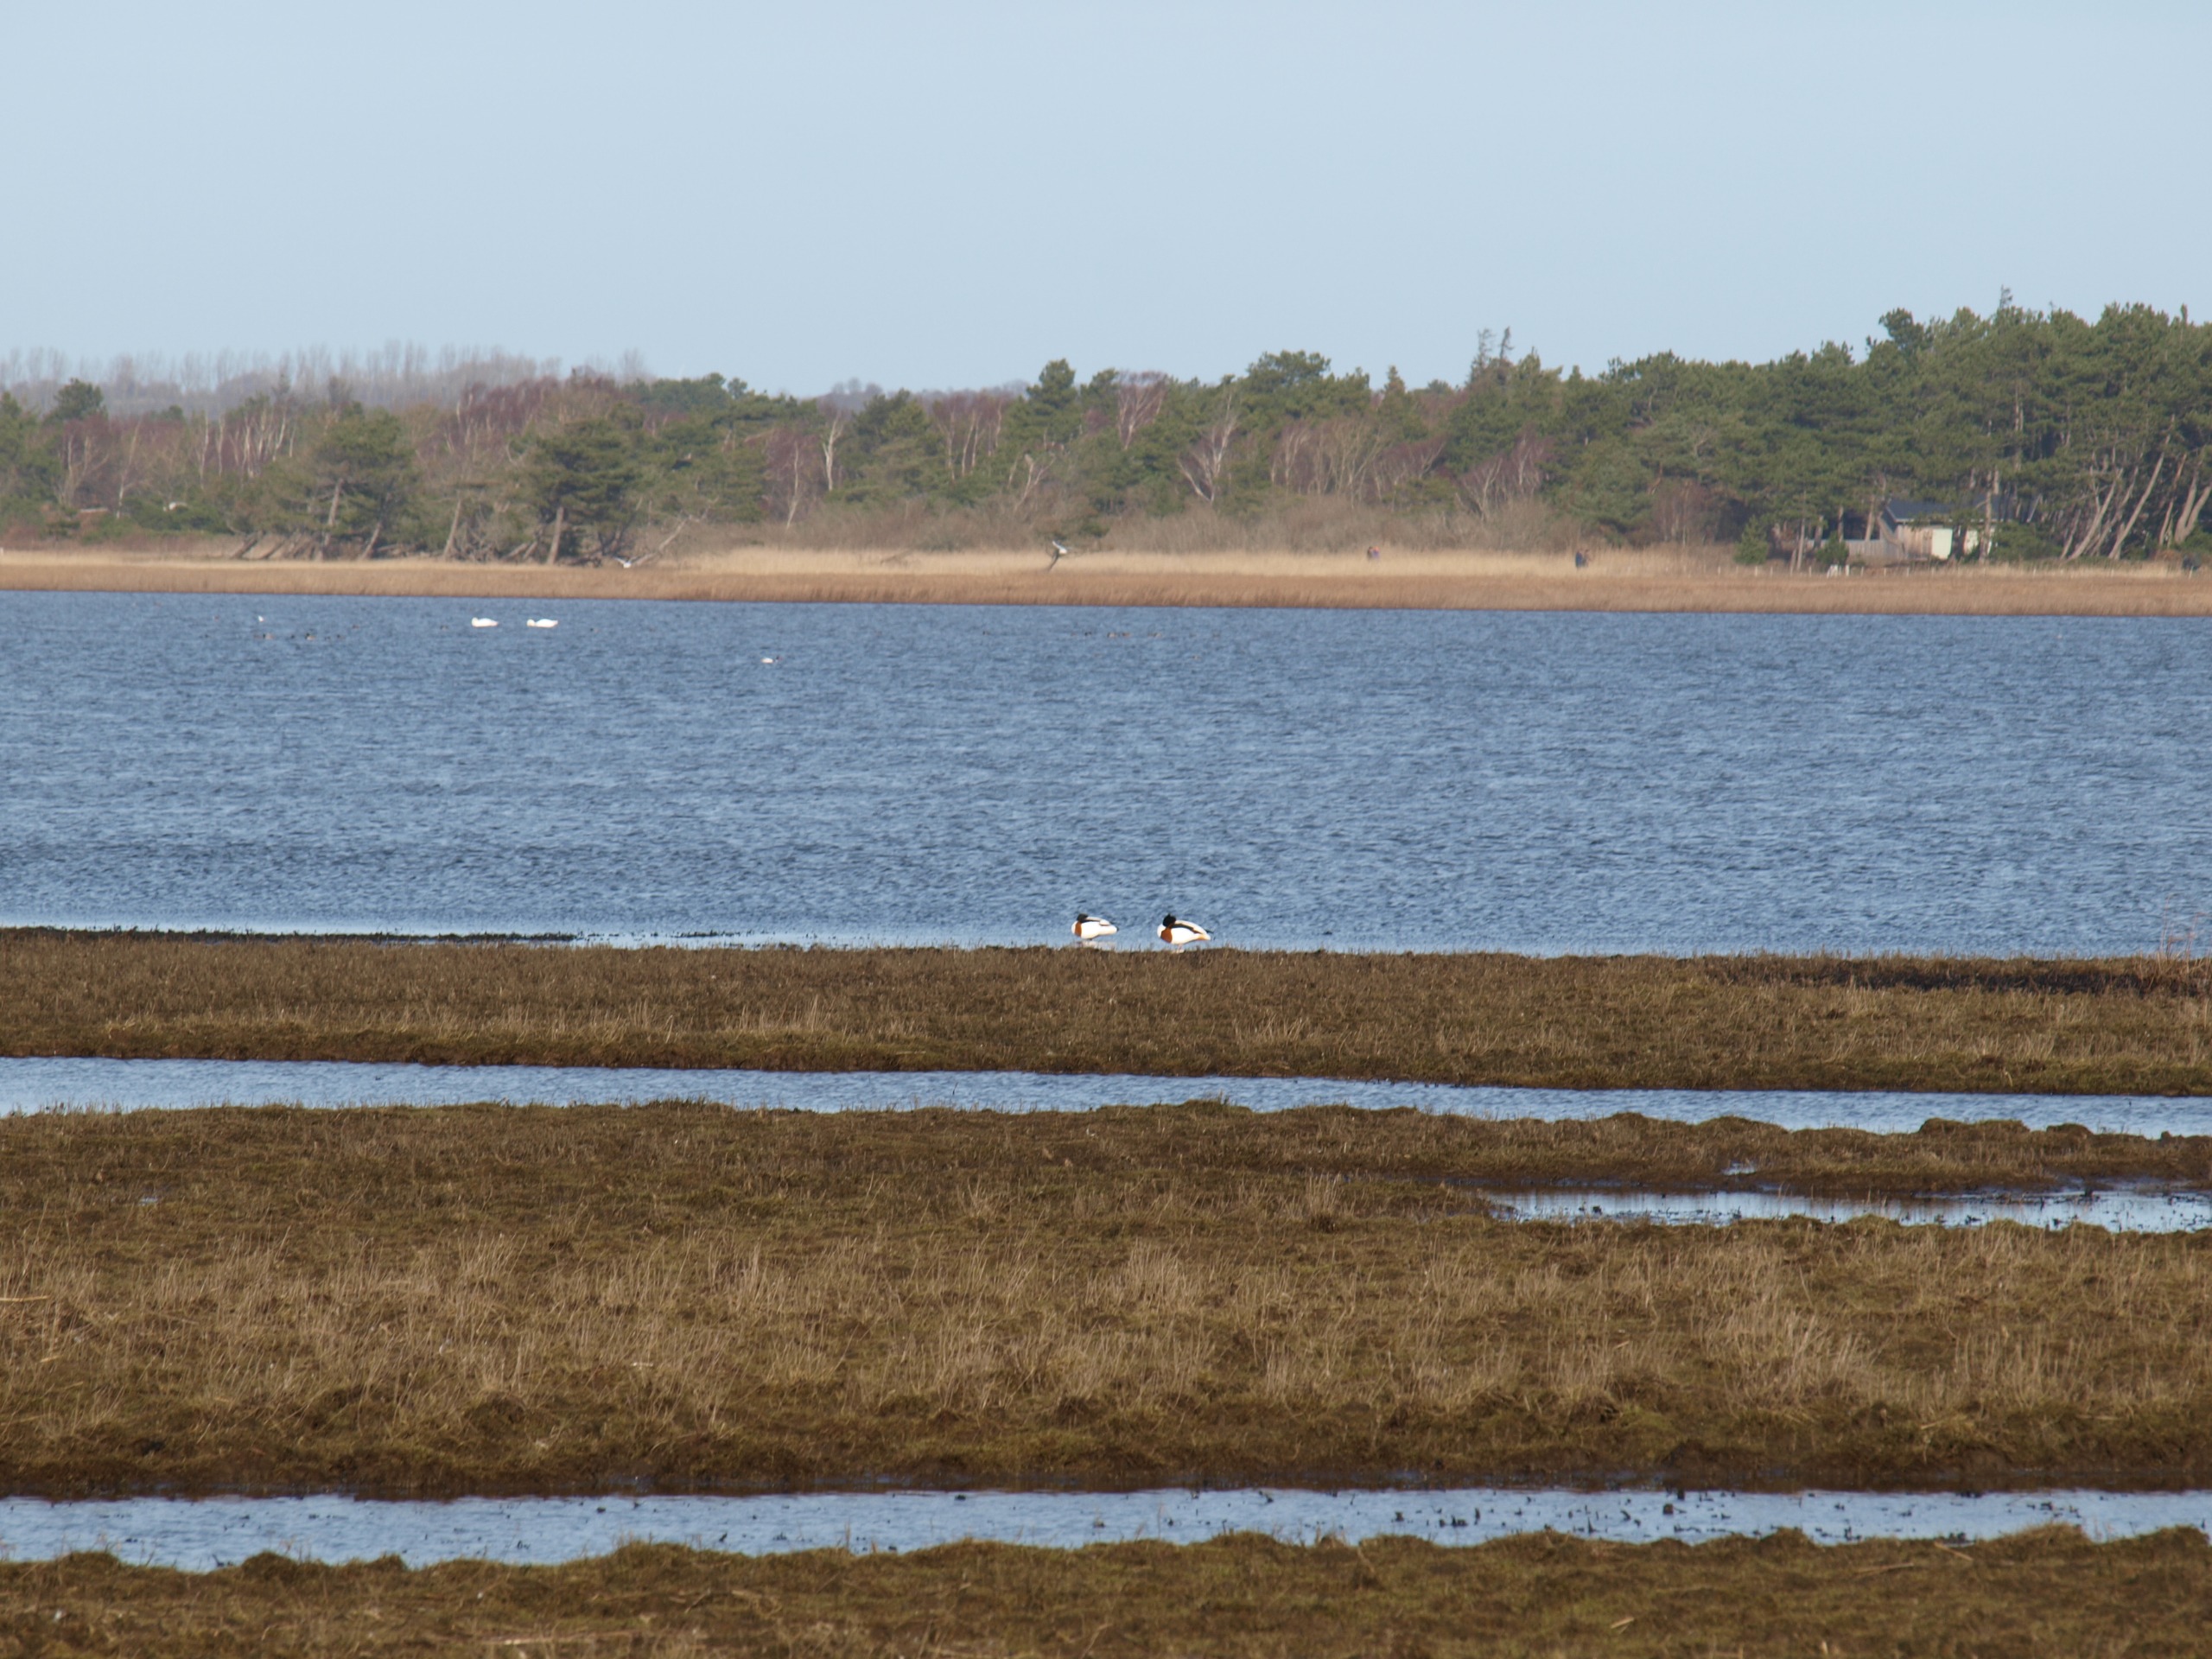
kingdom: Animalia
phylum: Chordata
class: Aves
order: Anseriformes
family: Anatidae
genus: Tadorna
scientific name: Tadorna tadorna
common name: Gravand
